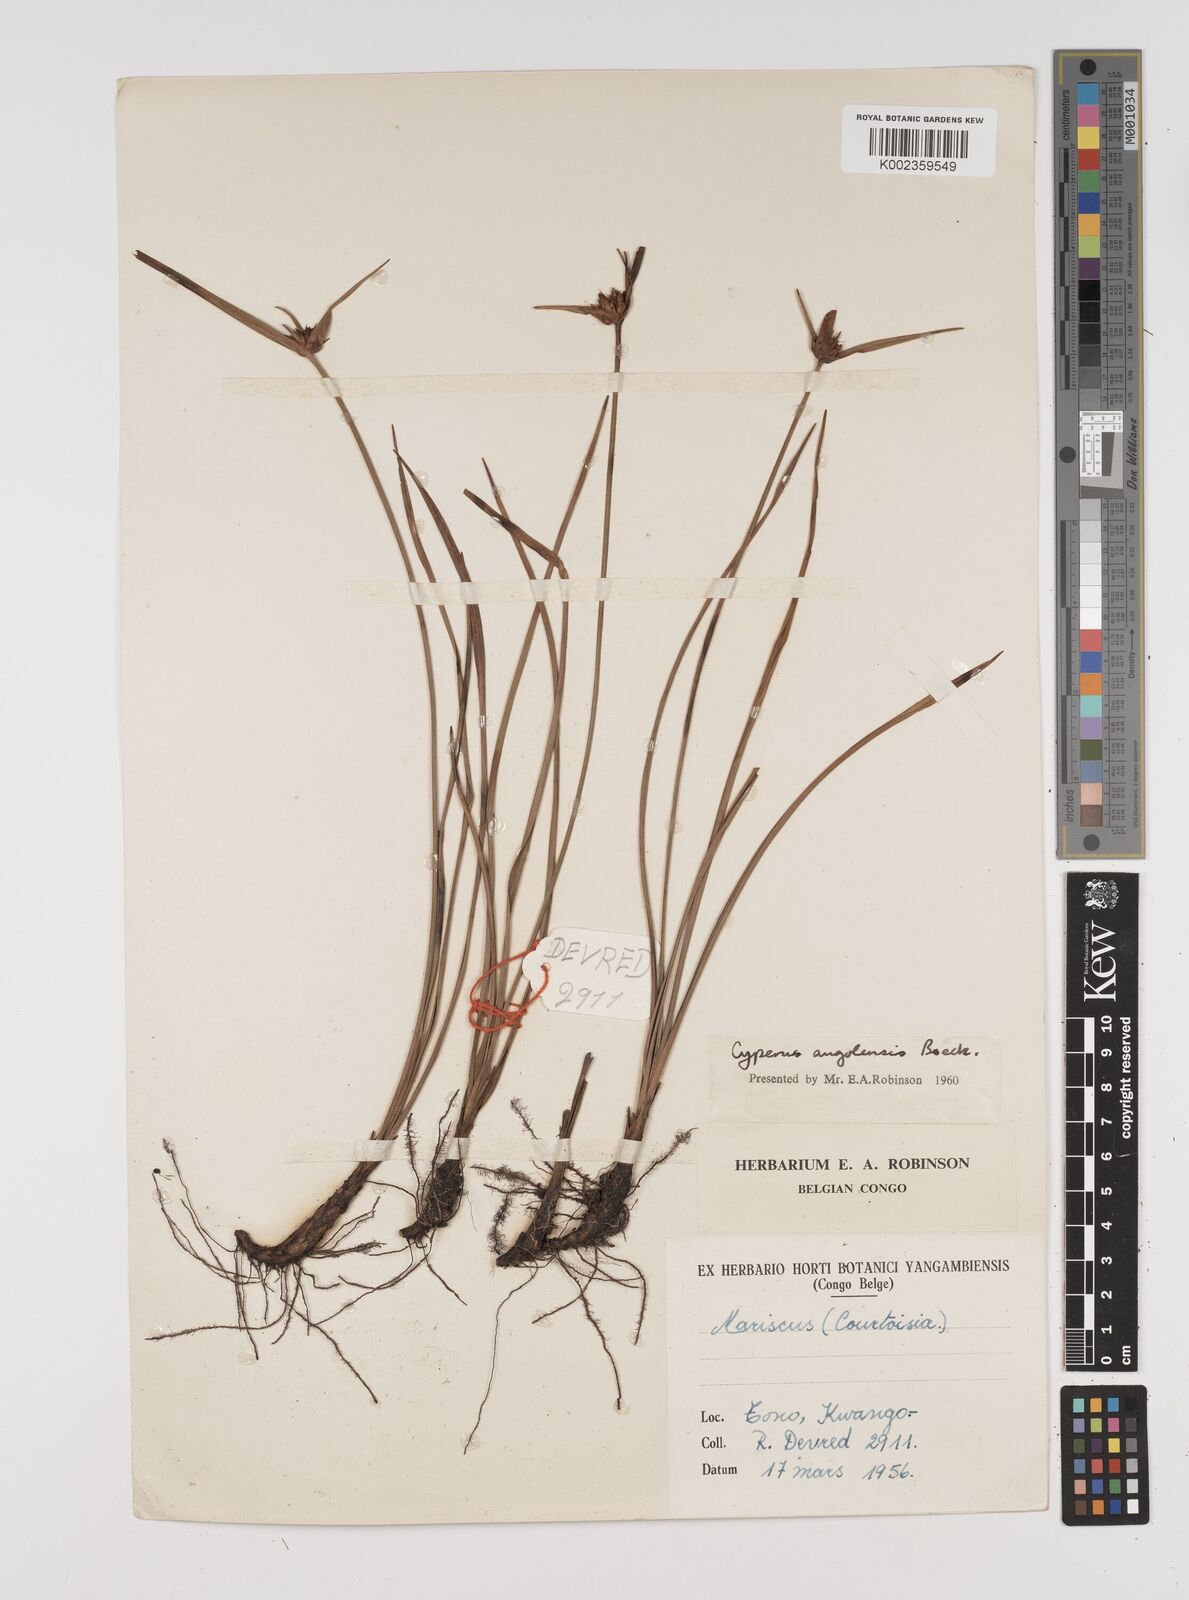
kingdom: Plantae
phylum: Tracheophyta
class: Liliopsida
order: Poales
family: Cyperaceae
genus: Cyperus
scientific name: Cyperus angolensis
